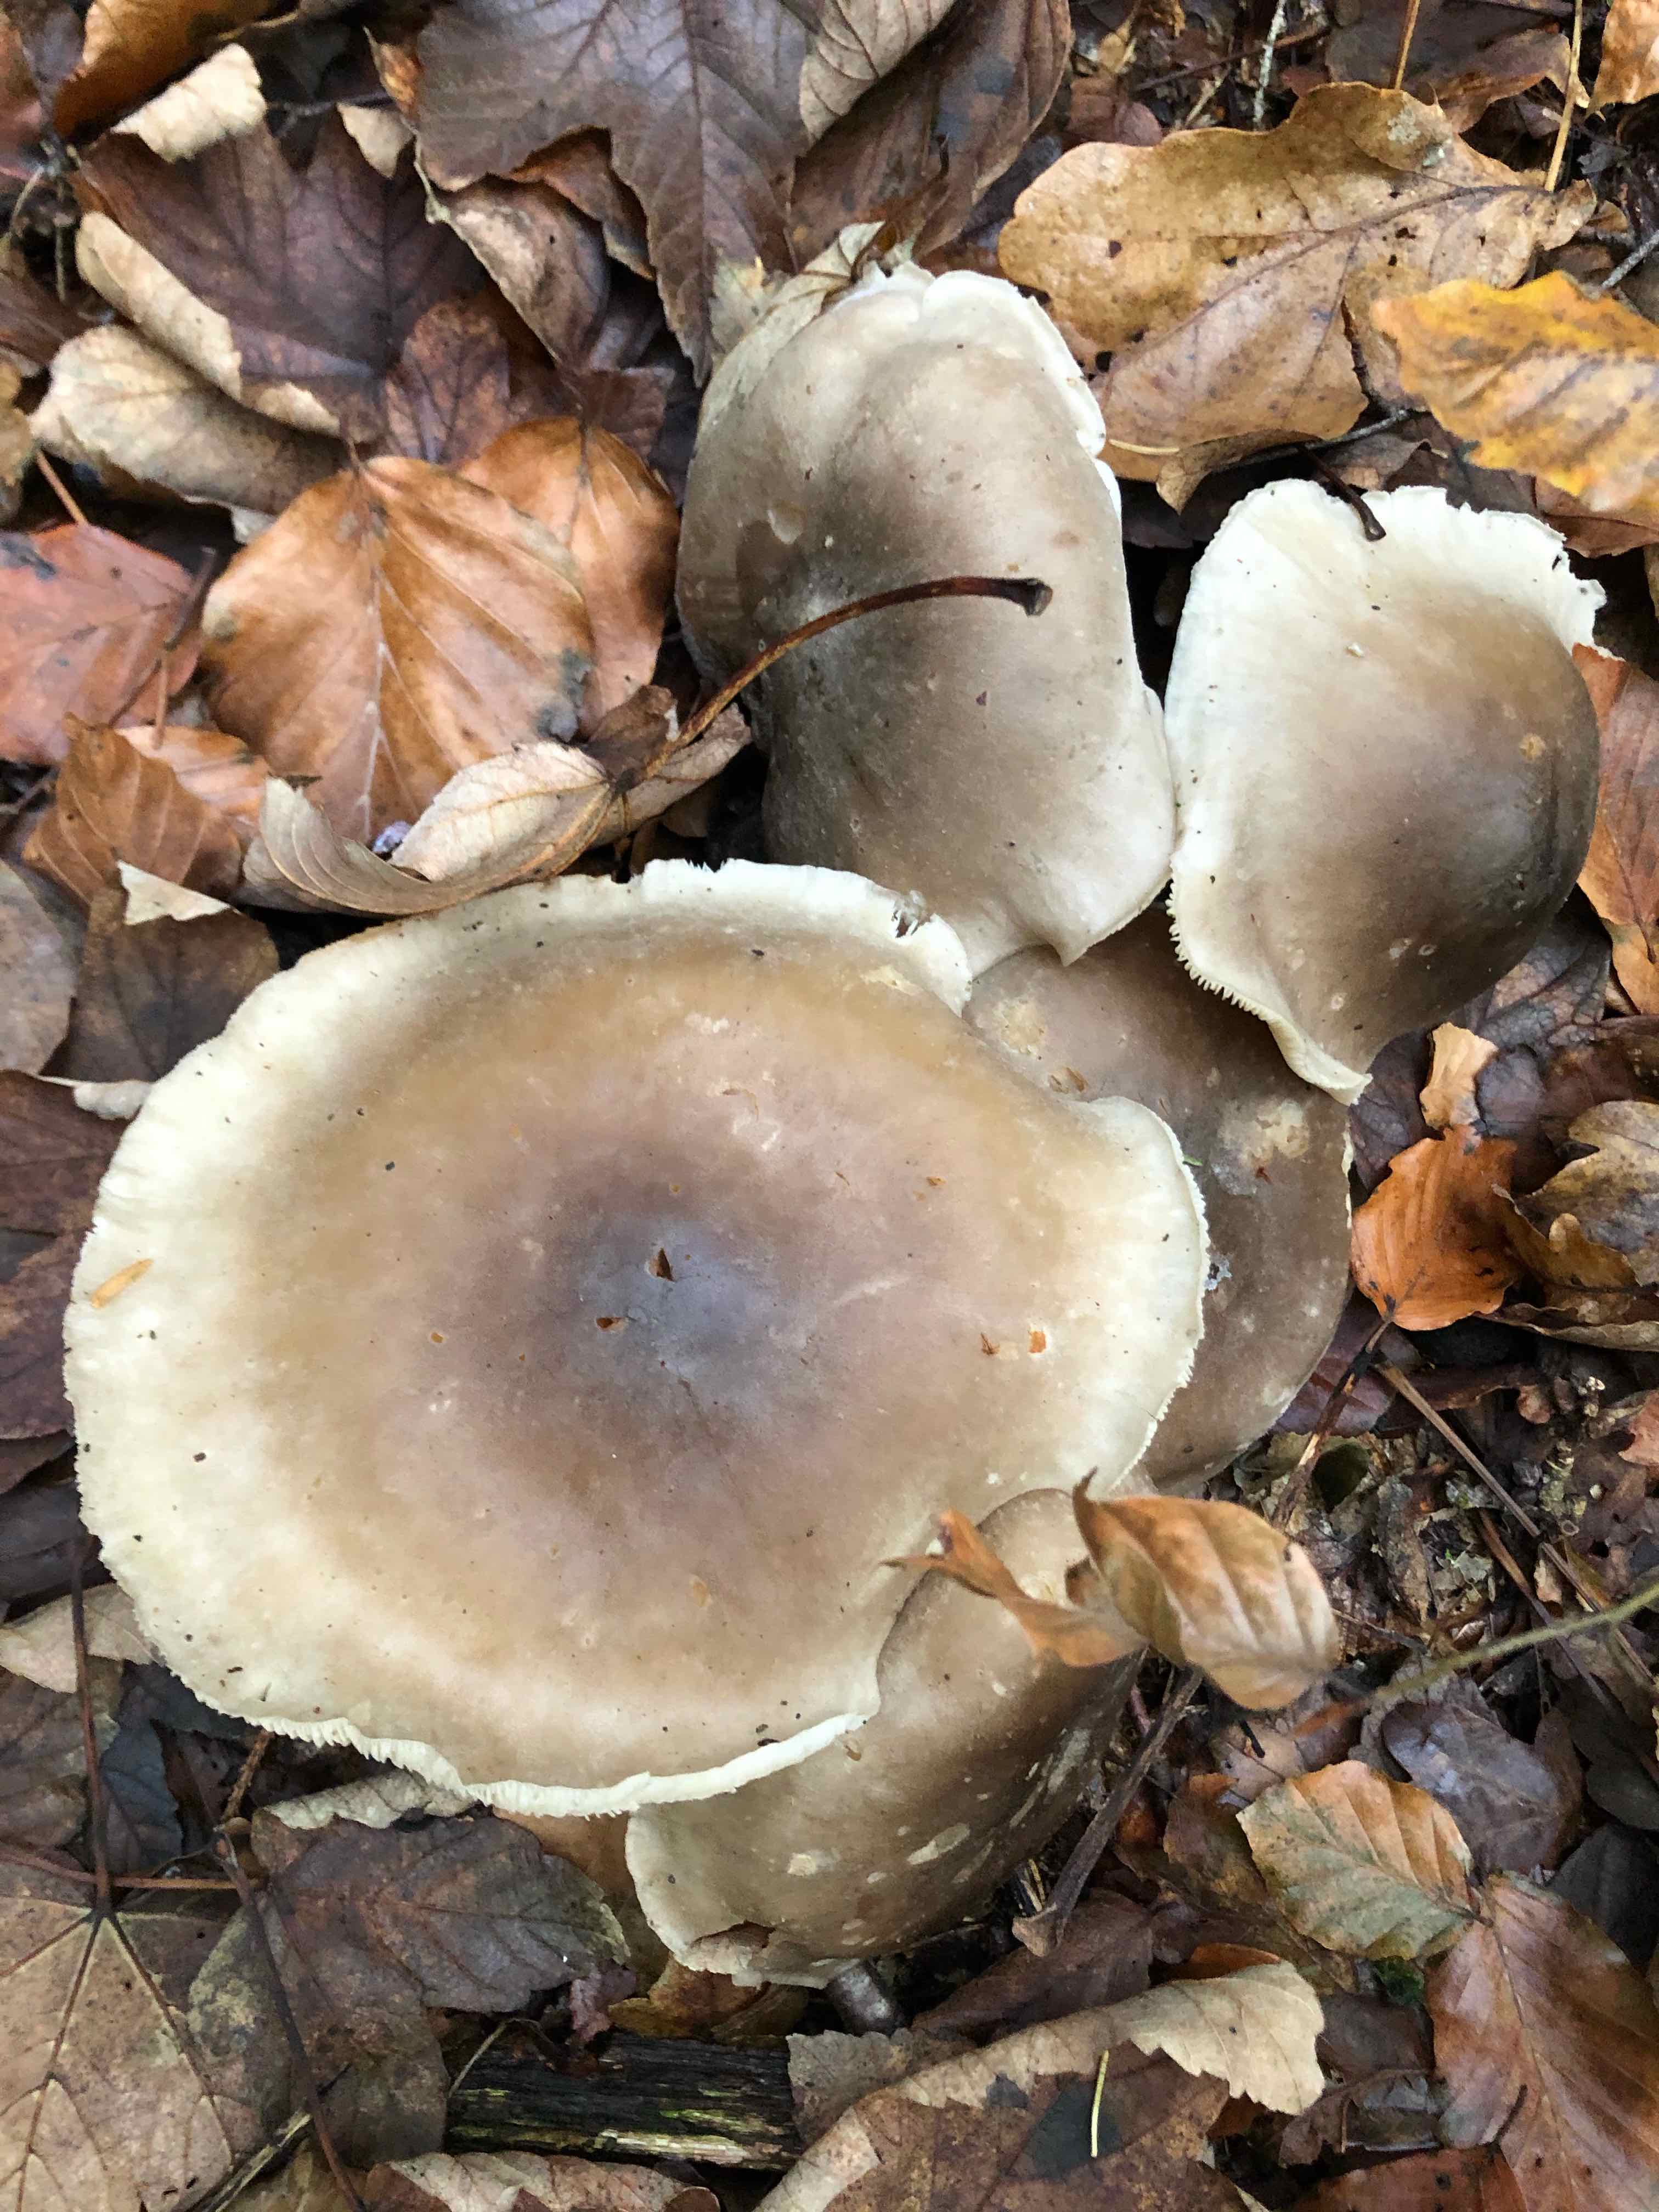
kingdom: Fungi
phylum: Basidiomycota
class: Agaricomycetes
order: Agaricales
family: Tricholomataceae
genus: Clitocybe
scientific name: Clitocybe nebularis
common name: tåge-tragthat
